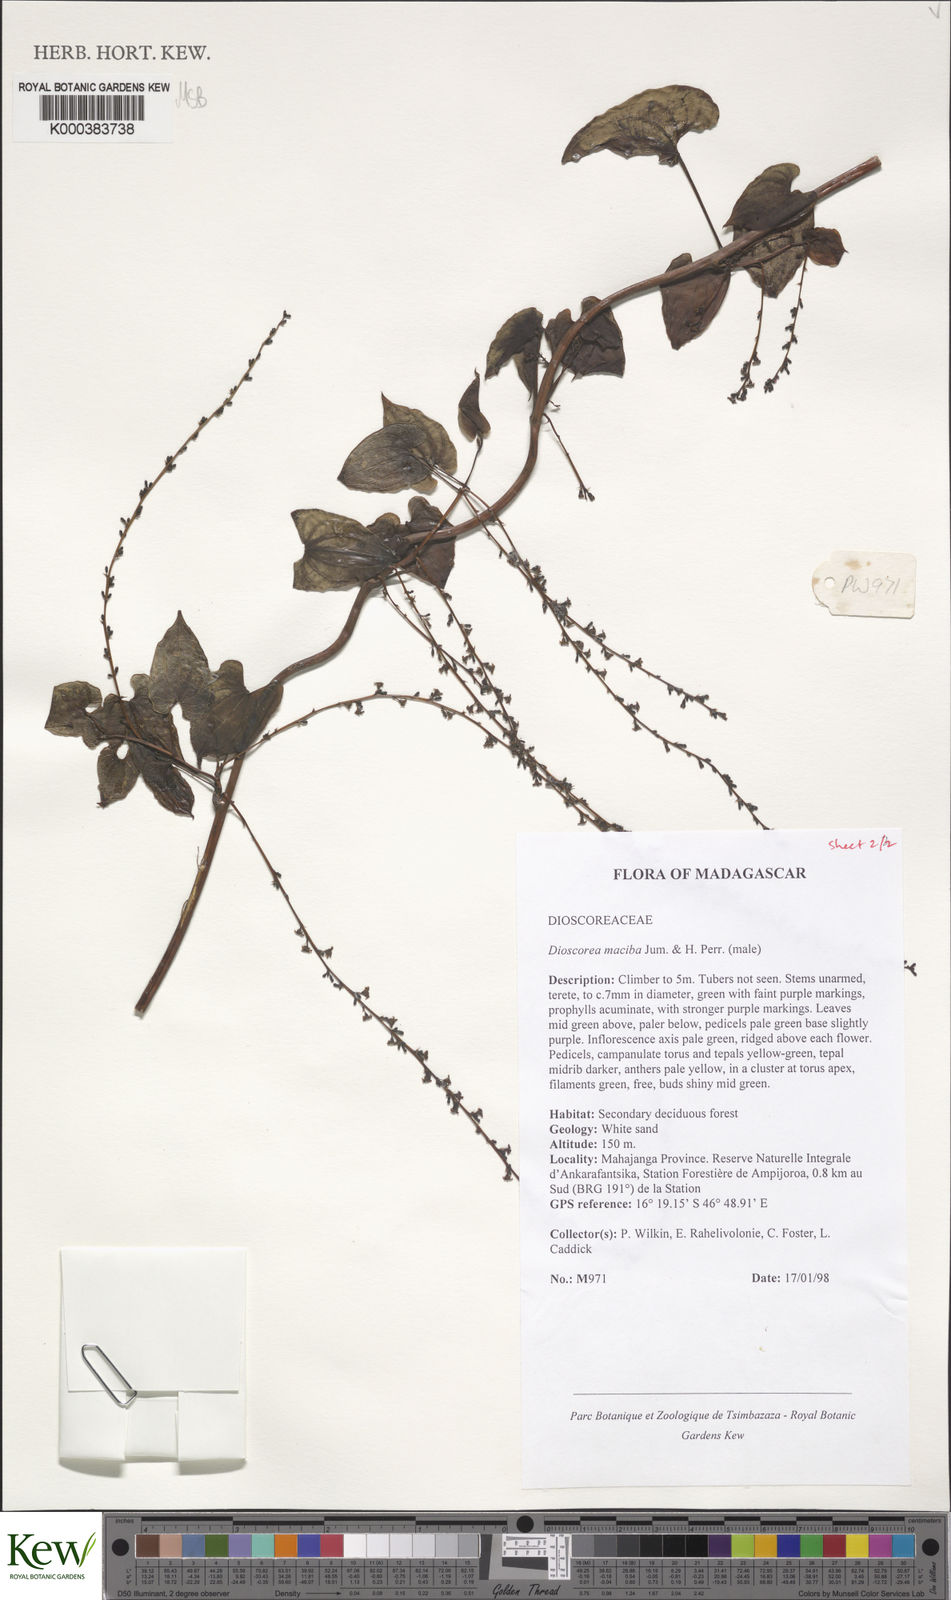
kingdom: Plantae
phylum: Tracheophyta
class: Liliopsida
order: Dioscoreales
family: Dioscoreaceae
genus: Dioscorea
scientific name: Dioscorea
